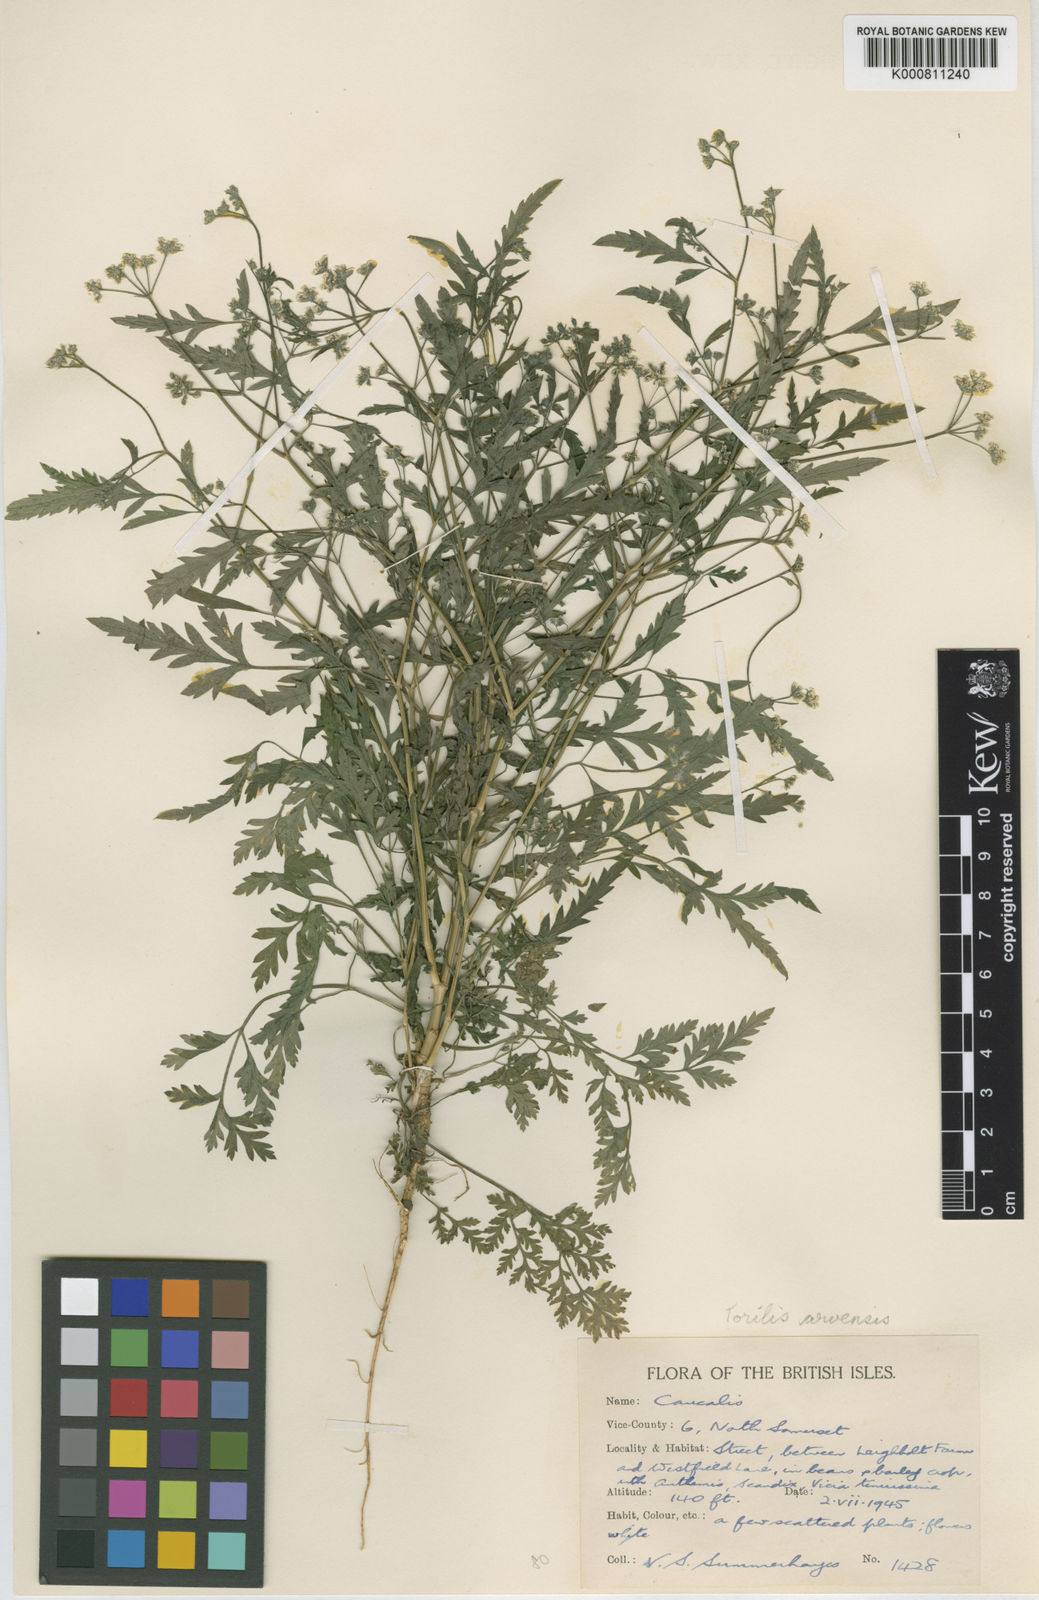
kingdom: Plantae
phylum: Tracheophyta
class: Magnoliopsida
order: Apiales
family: Apiaceae
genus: Torilis
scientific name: Torilis arvensis
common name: Spreading hedge-parsley
